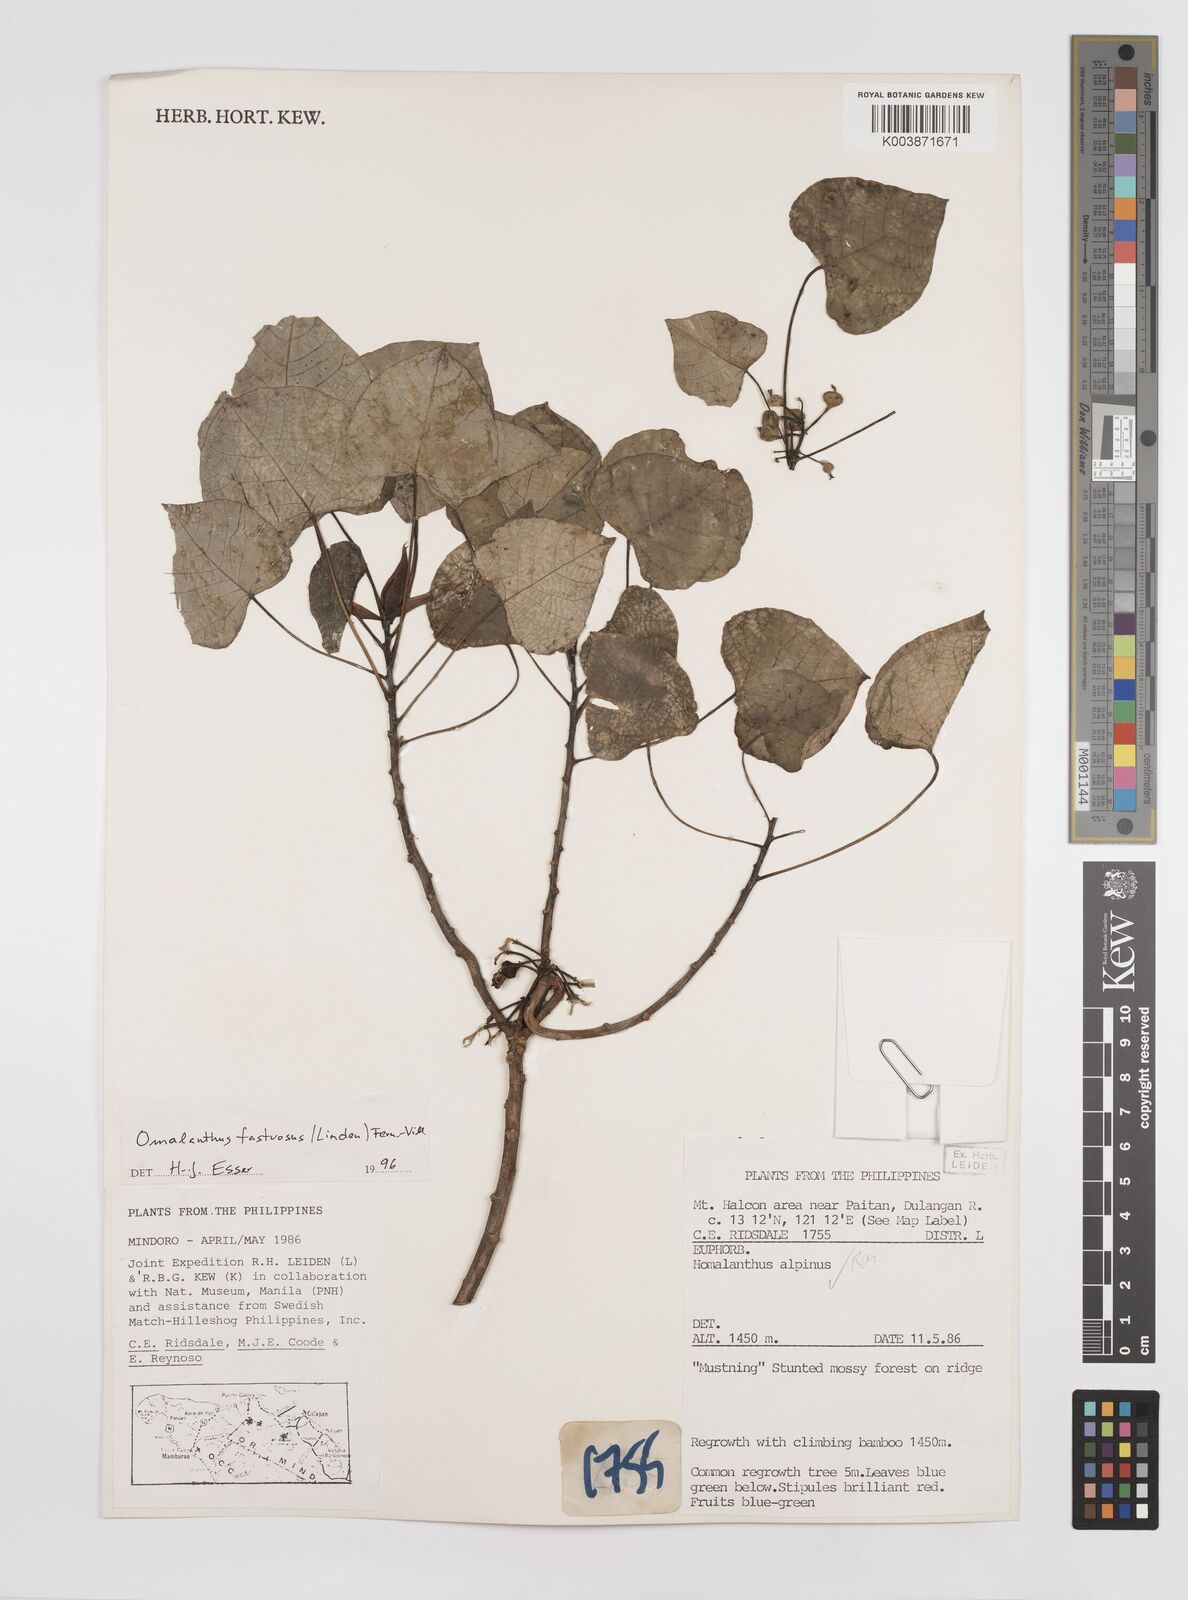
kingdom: Plantae
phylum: Tracheophyta
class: Magnoliopsida
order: Malpighiales
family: Euphorbiaceae
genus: Homalanthus
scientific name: Homalanthus fastuosus
